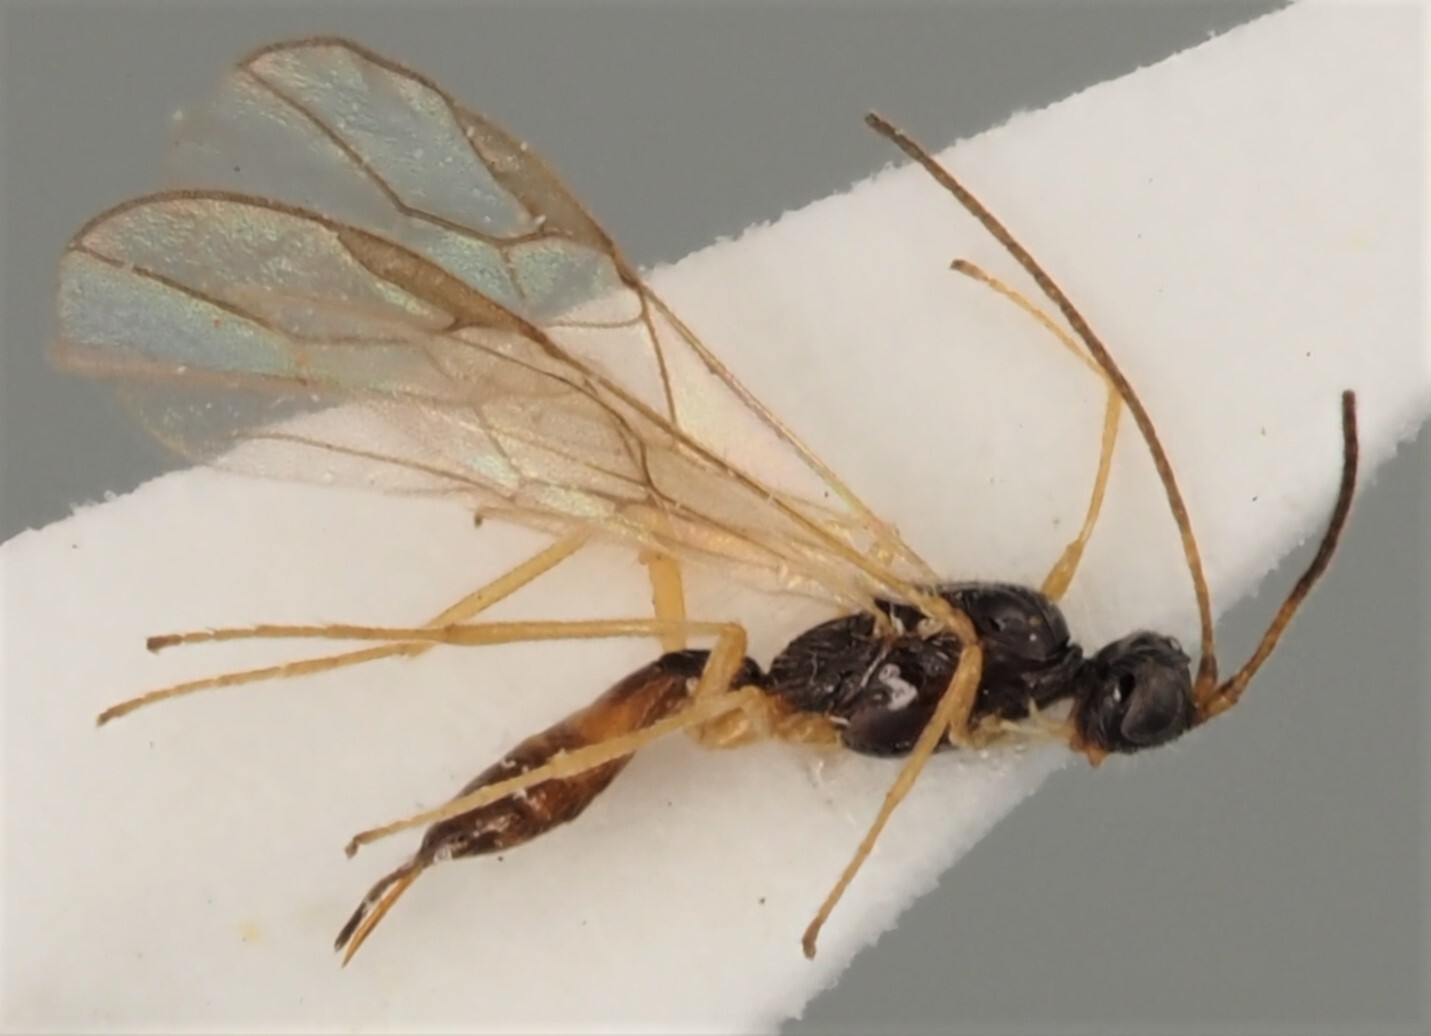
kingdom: Animalia
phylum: Arthropoda
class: Insecta
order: Hymenoptera
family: Braconidae
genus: Colastes
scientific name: Colastes braconius
